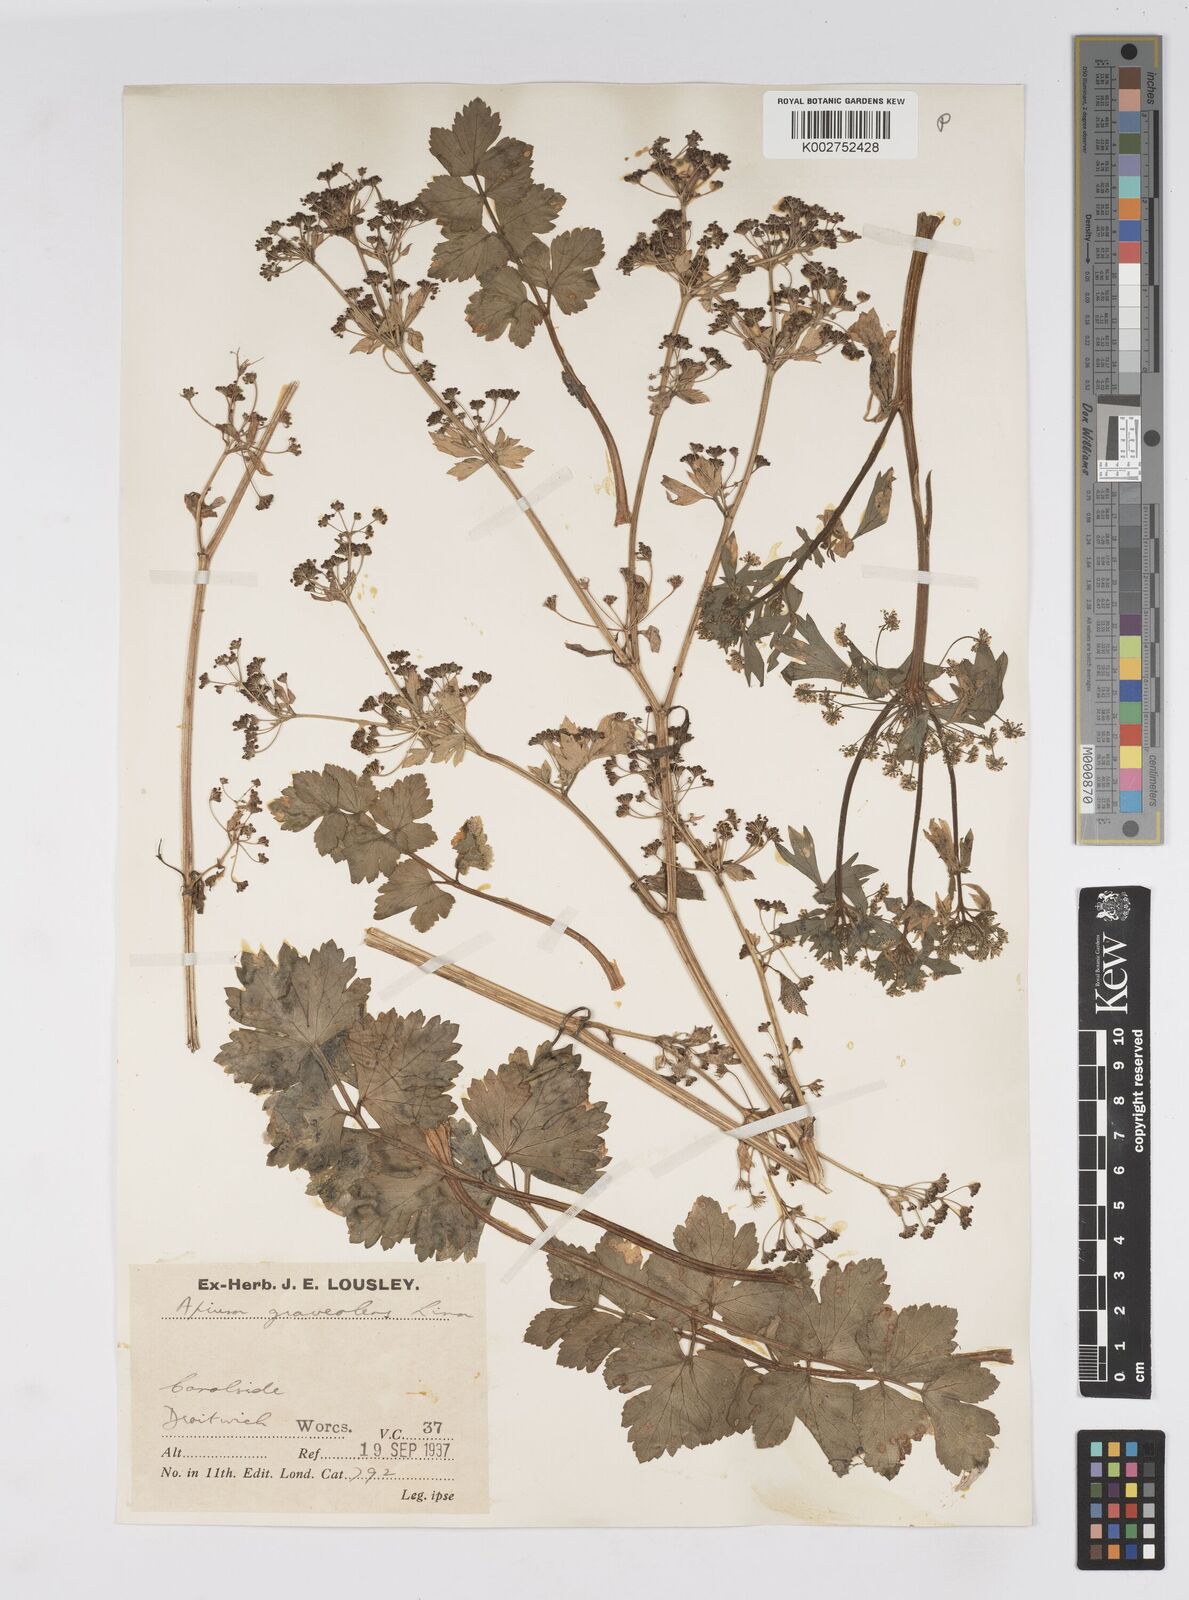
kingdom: Plantae
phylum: Tracheophyta
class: Magnoliopsida
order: Apiales
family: Apiaceae
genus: Apium
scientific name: Apium graveolens
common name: Wild celery
